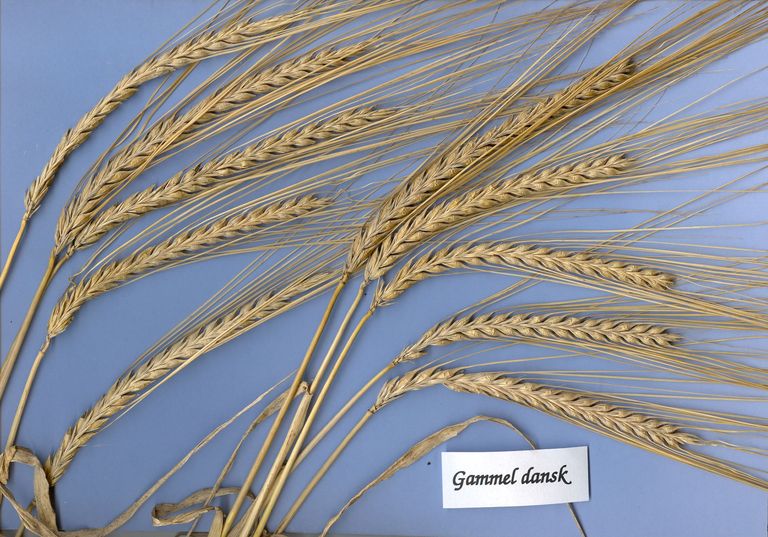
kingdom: Plantae
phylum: Tracheophyta
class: Liliopsida
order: Poales
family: Poaceae
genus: Hordeum
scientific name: Hordeum vulgare
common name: Common barley
